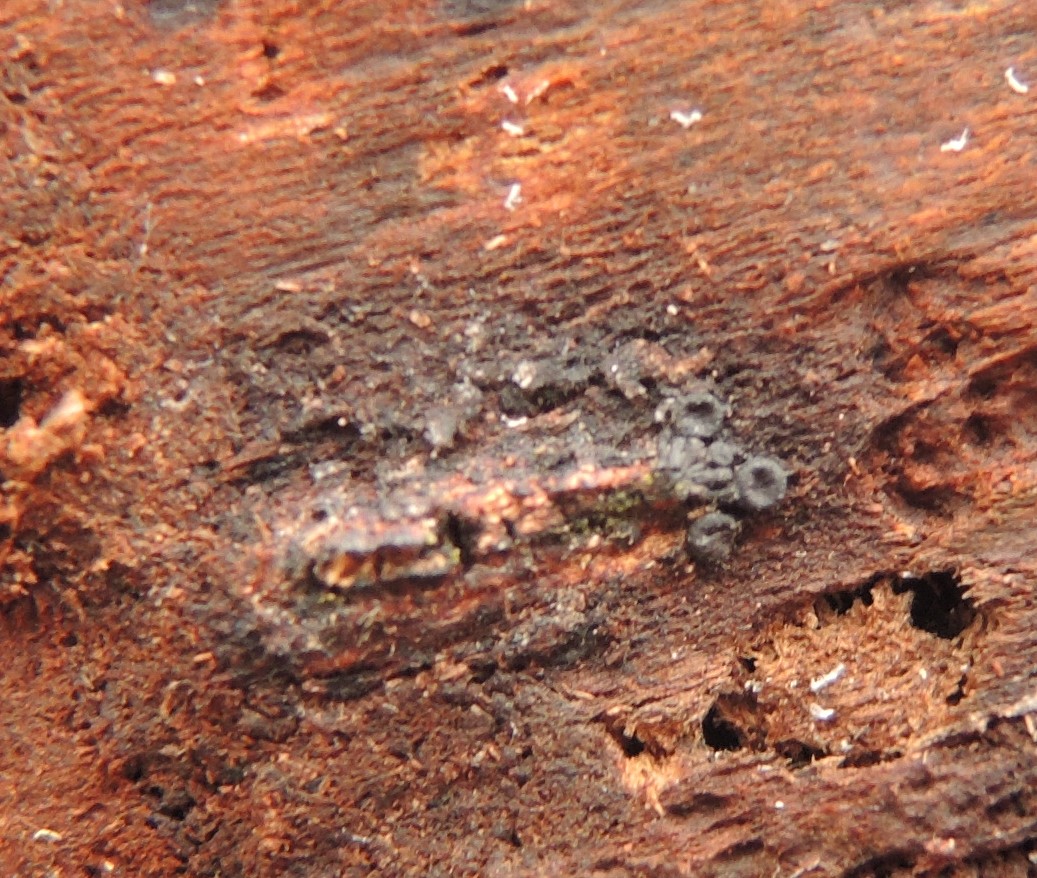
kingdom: Fungi
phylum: Ascomycota
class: Sordariomycetes
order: Calosphaeriales
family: Calosphaeriaceae
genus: Calosphaeria
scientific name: Calosphaeria pulchella
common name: smuk slyngkerne
